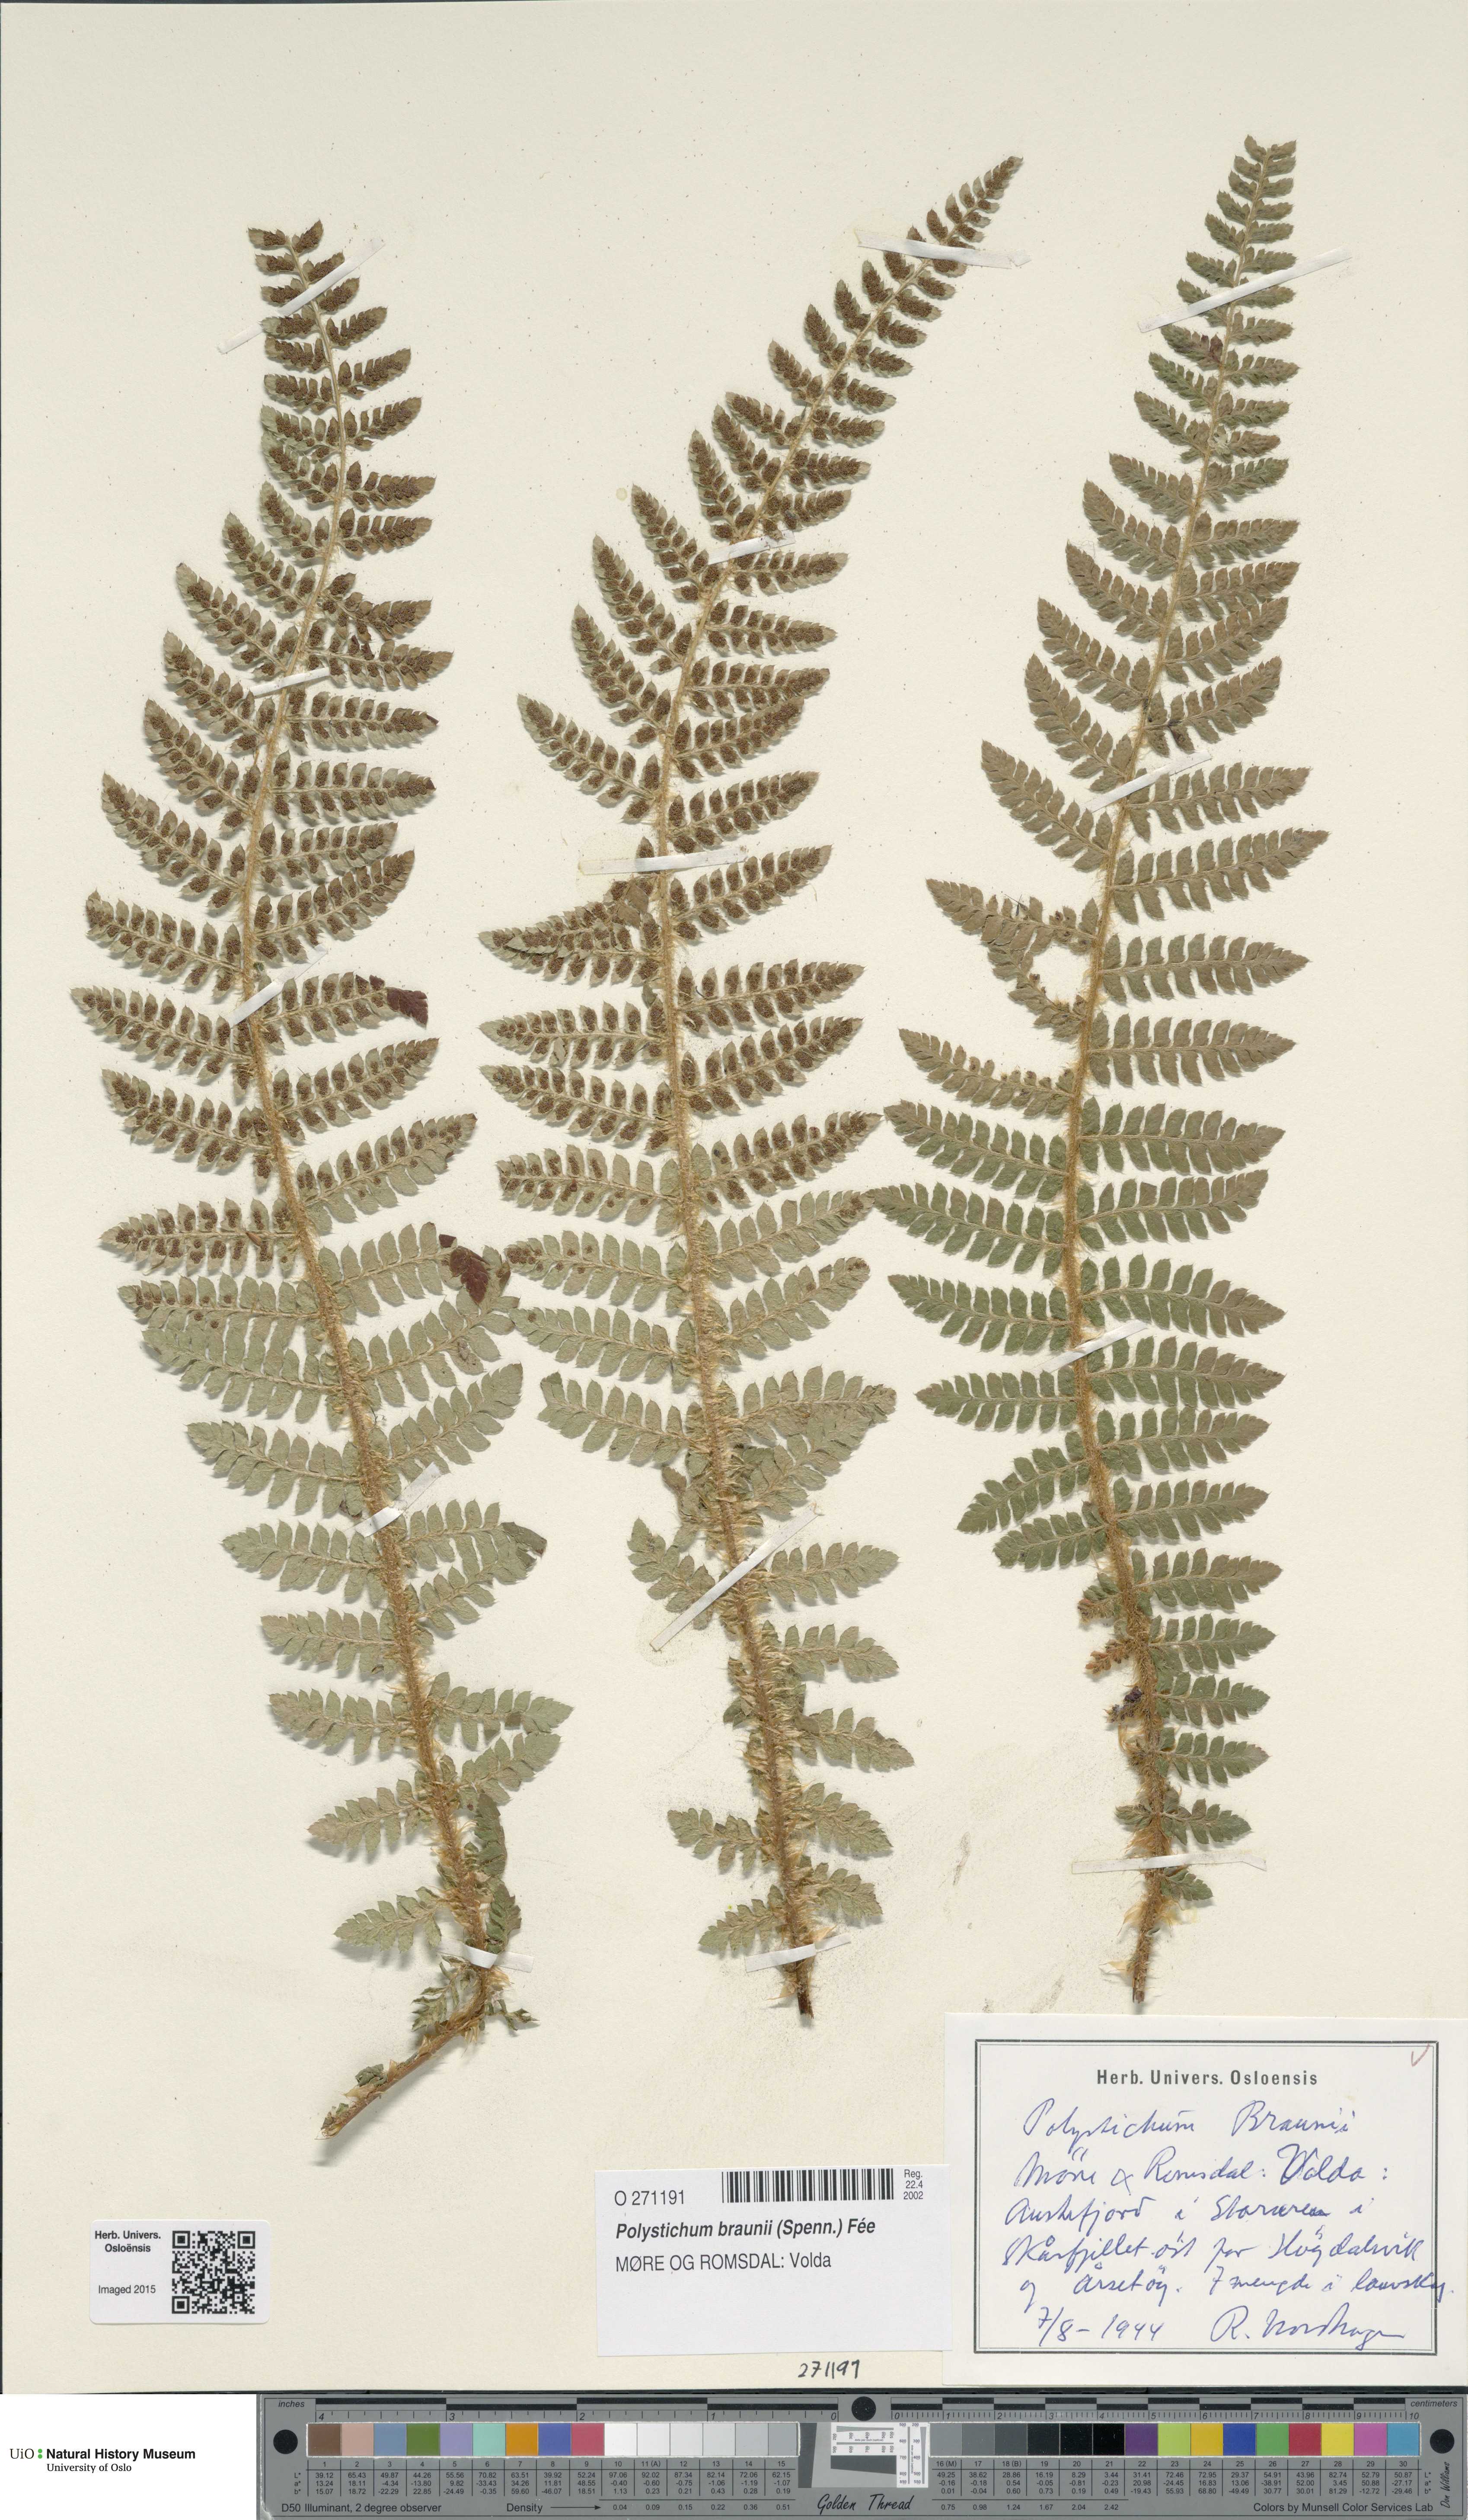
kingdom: Plantae
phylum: Tracheophyta
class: Polypodiopsida
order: Polypodiales
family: Dryopteridaceae
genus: Polystichum
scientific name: Polystichum braunii
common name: Braun's holly fern
